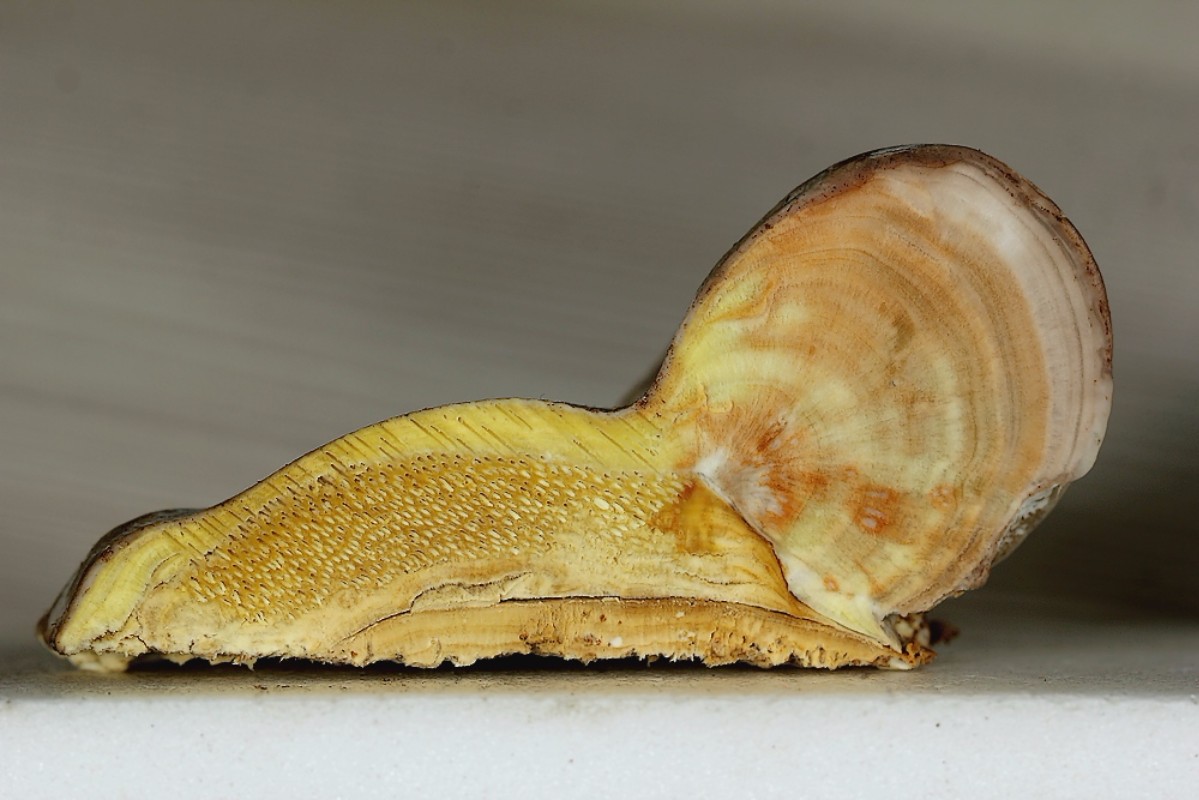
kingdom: Fungi
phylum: Basidiomycota
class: Agaricomycetes
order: Polyporales
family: Fomitopsidaceae
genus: Fomitopsis
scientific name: Fomitopsis pinicola
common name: randbæltet hovporesvamp
